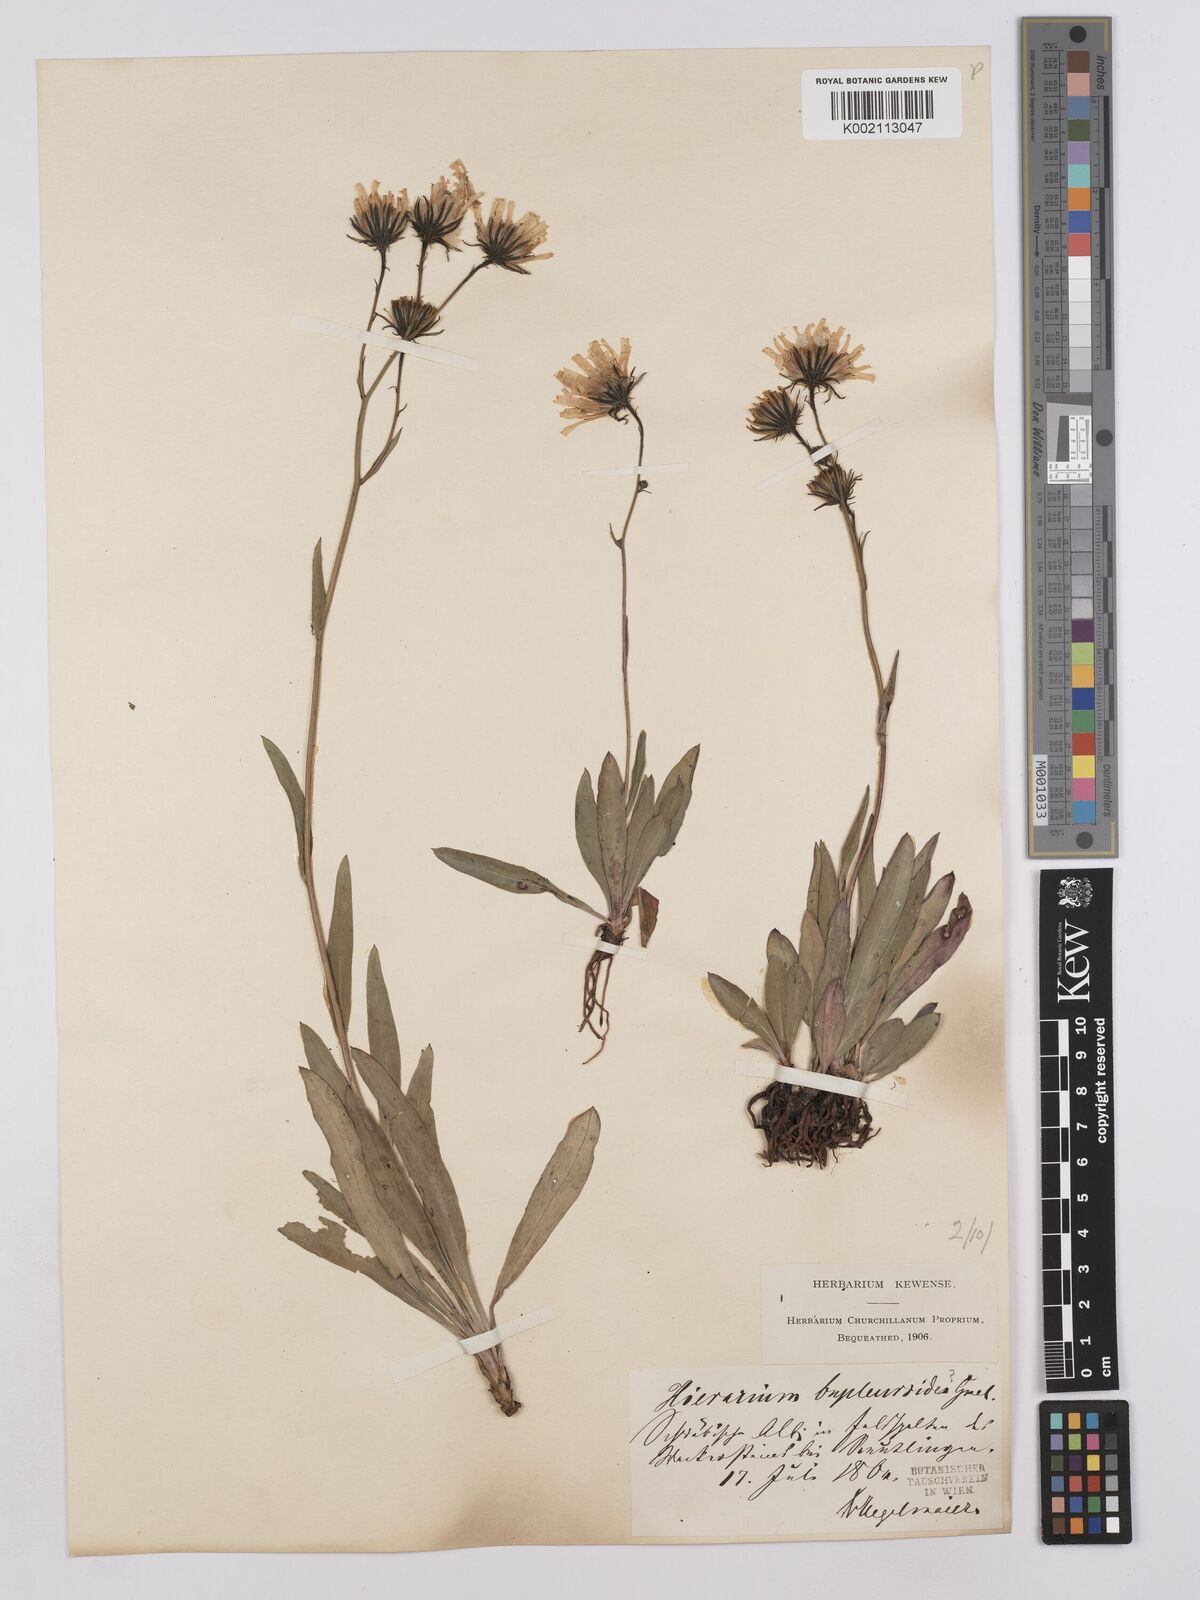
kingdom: Plantae
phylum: Tracheophyta
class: Magnoliopsida
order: Asterales
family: Asteraceae
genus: Hieracium
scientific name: Hieracium bupleuroides
